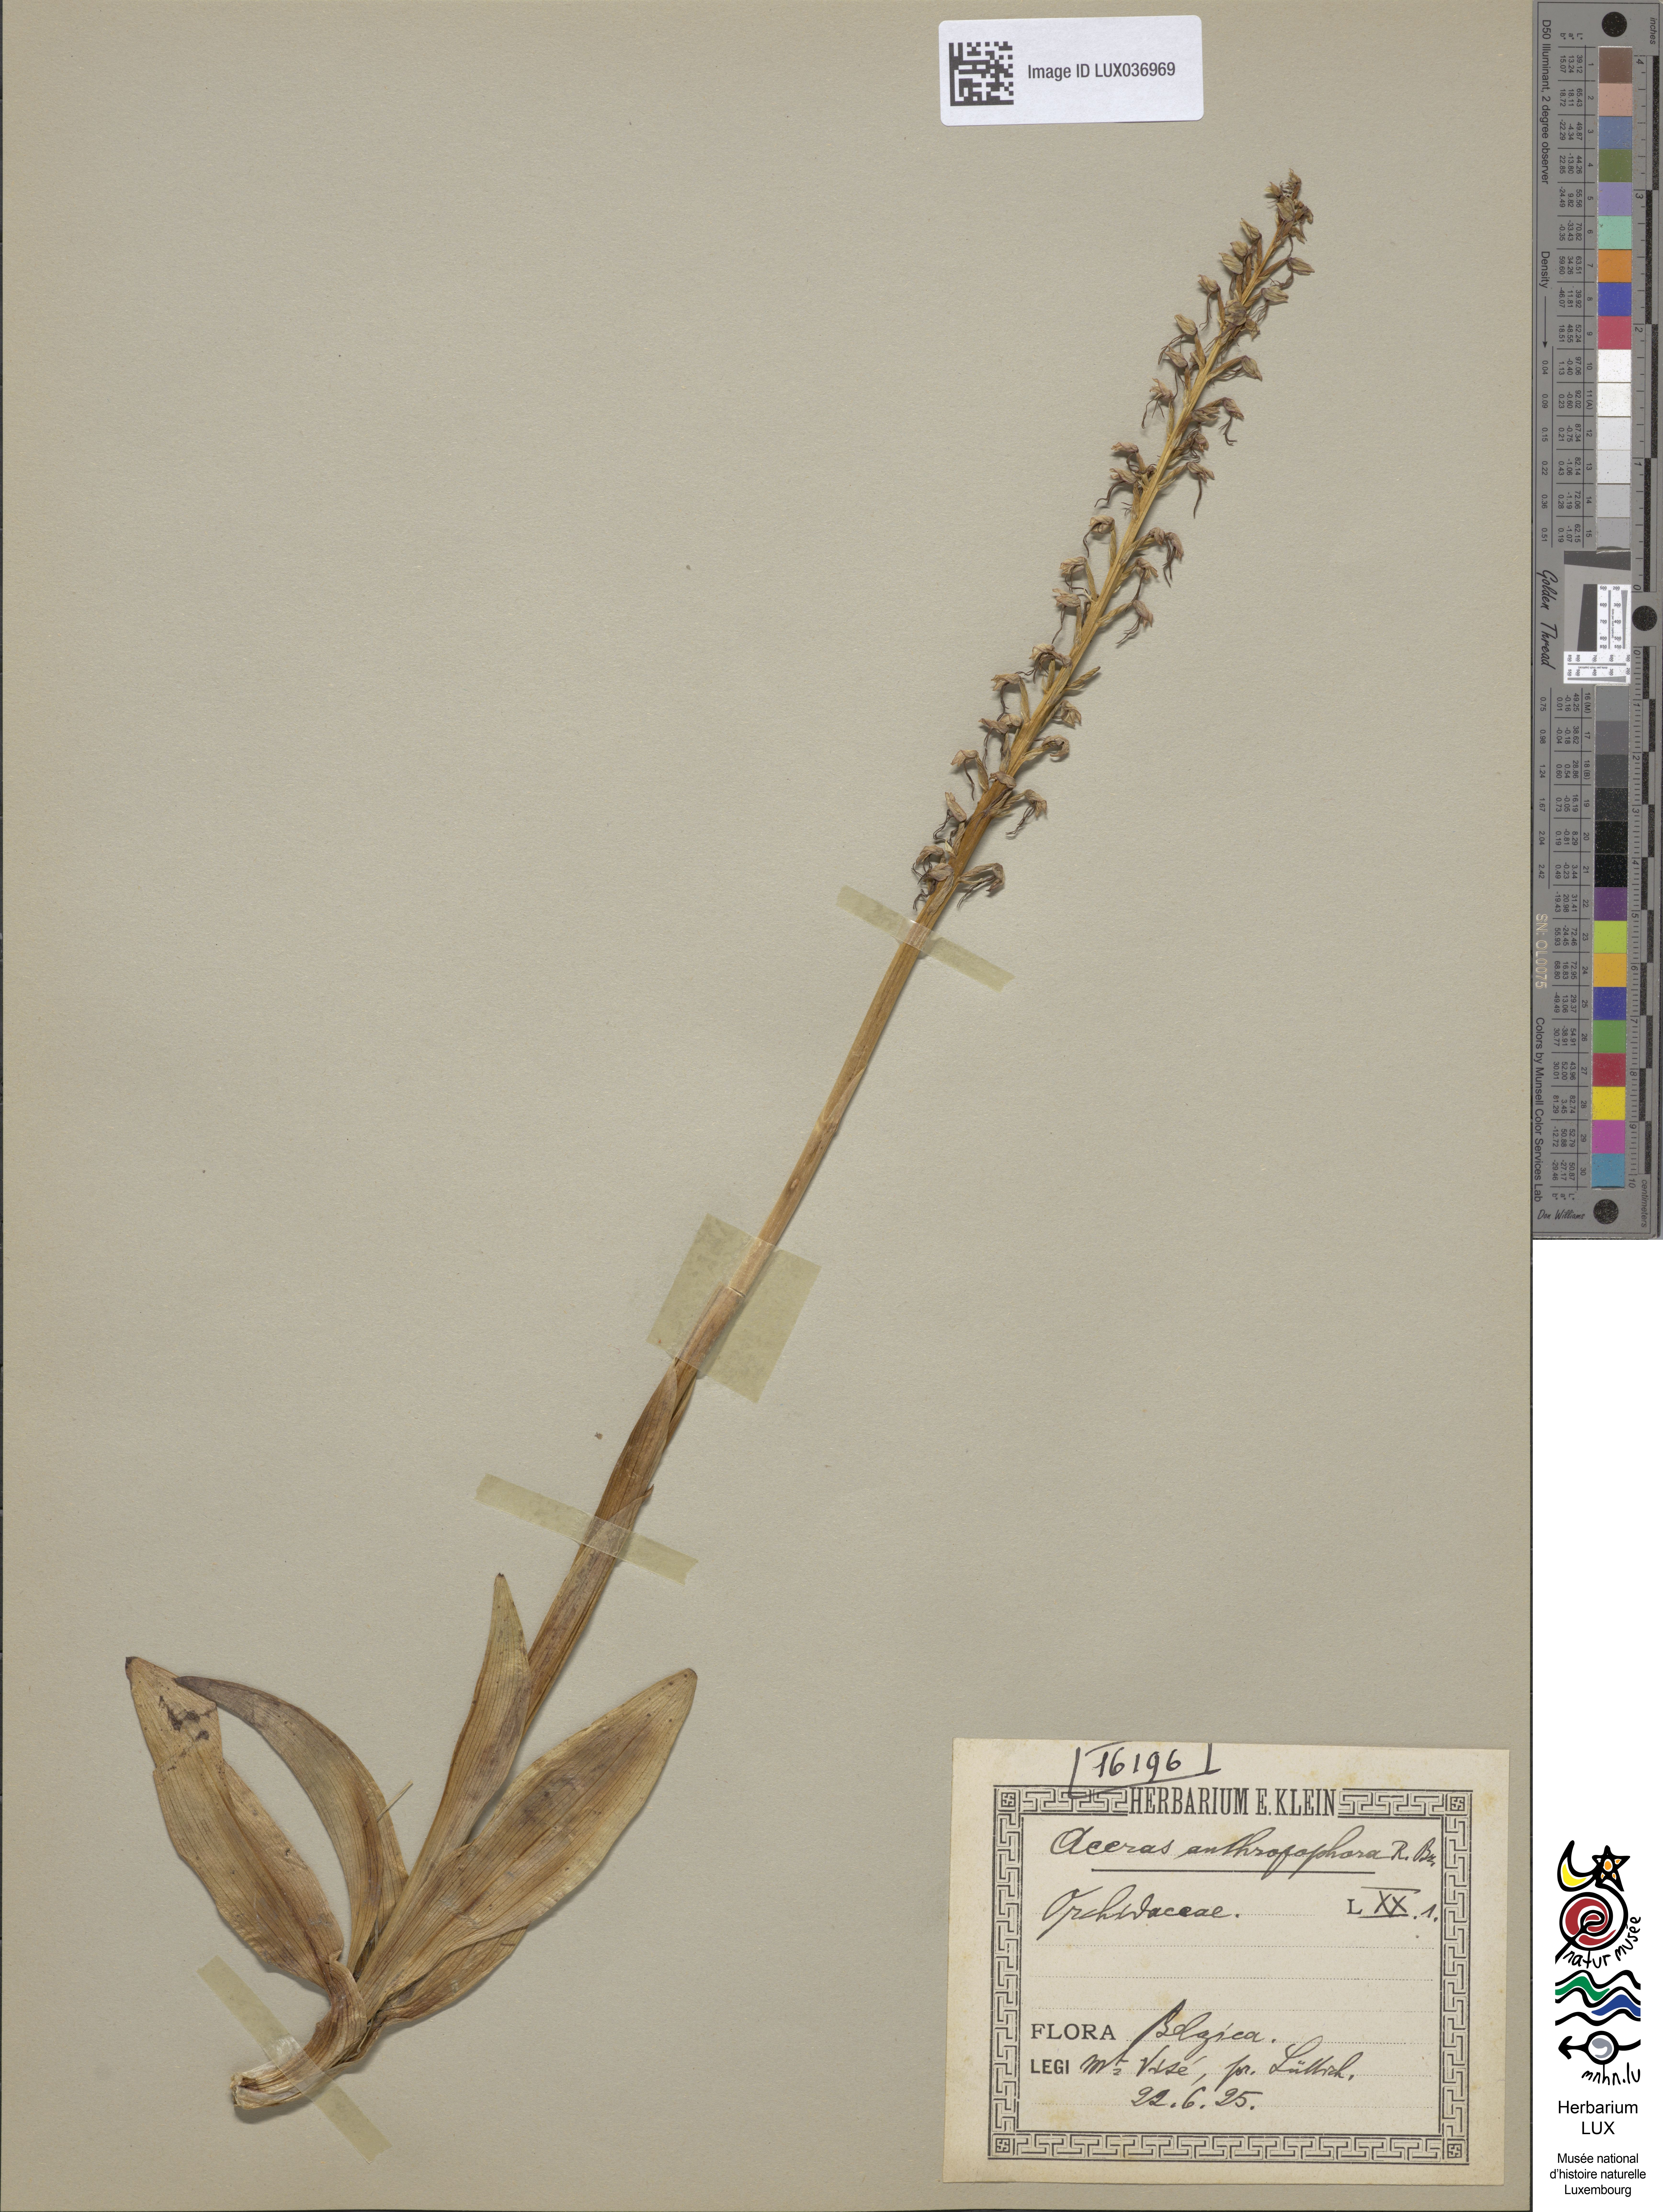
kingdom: Plantae
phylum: Tracheophyta
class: Liliopsida
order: Asparagales
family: Orchidaceae
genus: Orchis
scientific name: Orchis anthropophora
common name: Man orchid
